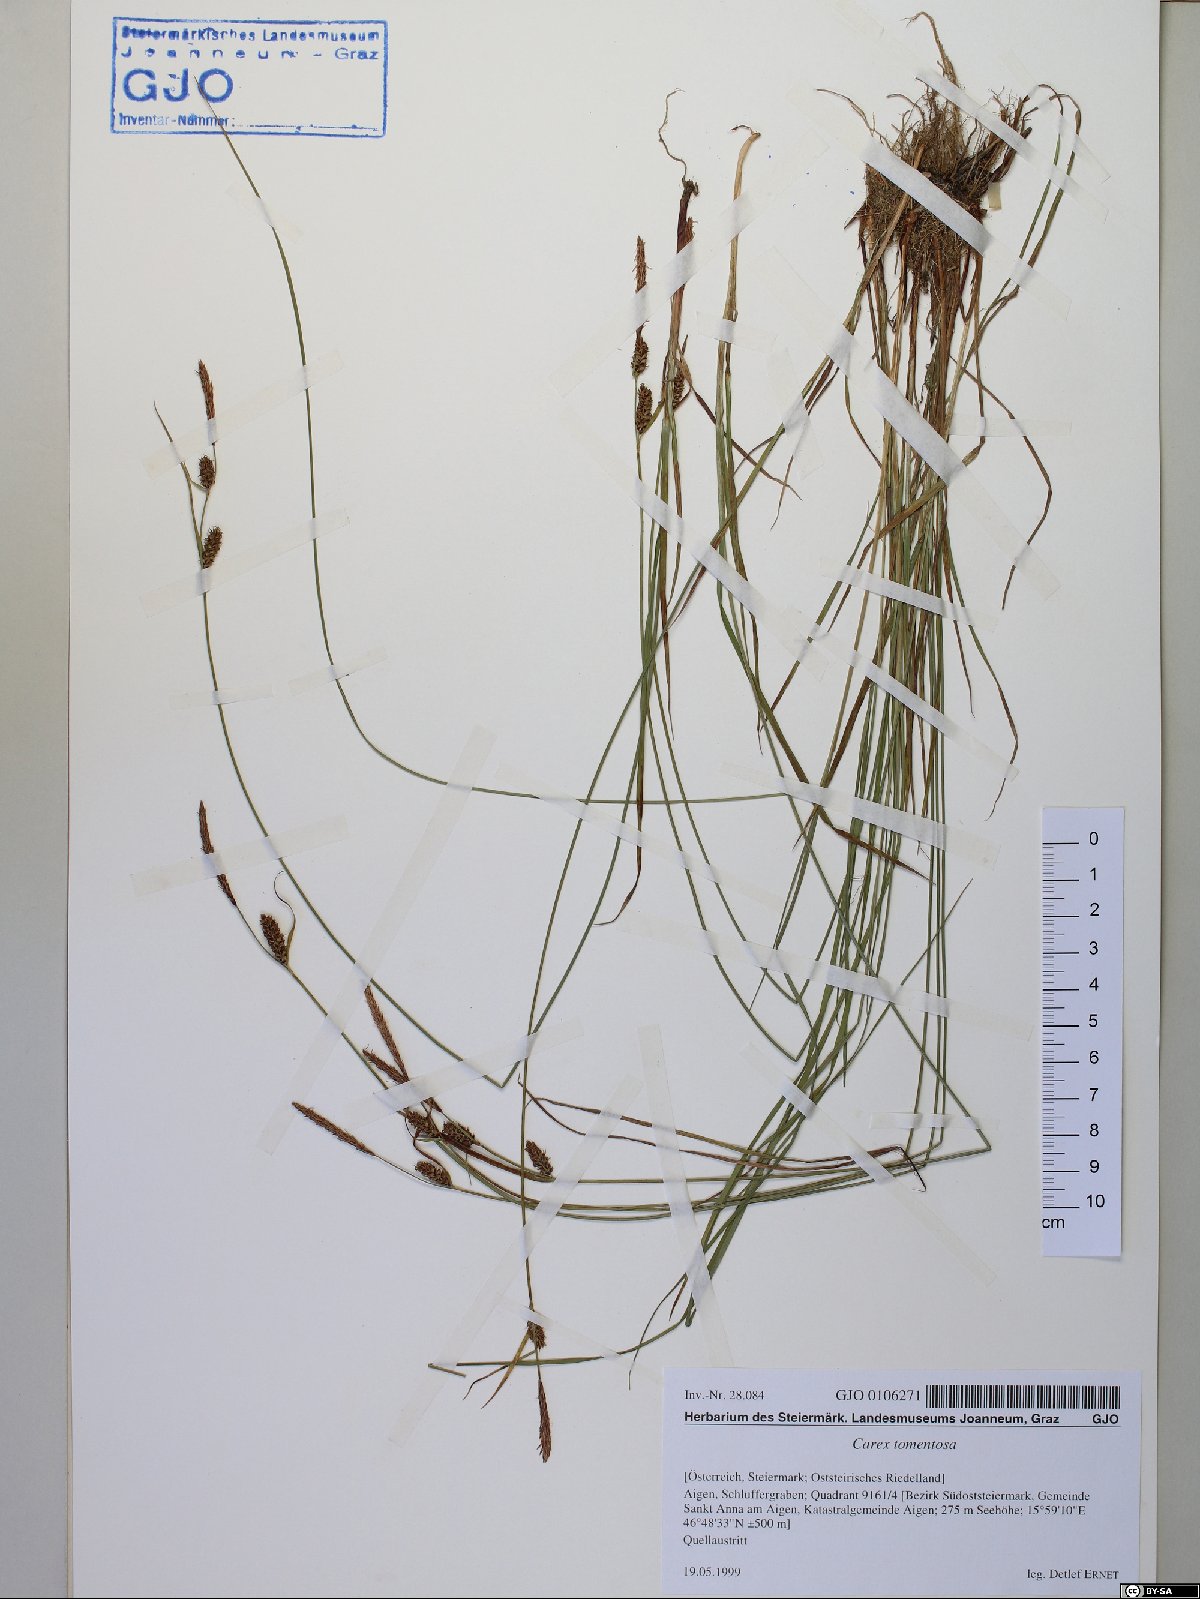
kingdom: Plantae
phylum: Tracheophyta
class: Liliopsida
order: Poales
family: Cyperaceae
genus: Carex
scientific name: Carex tomentosa
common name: Downy-fruited sedge
